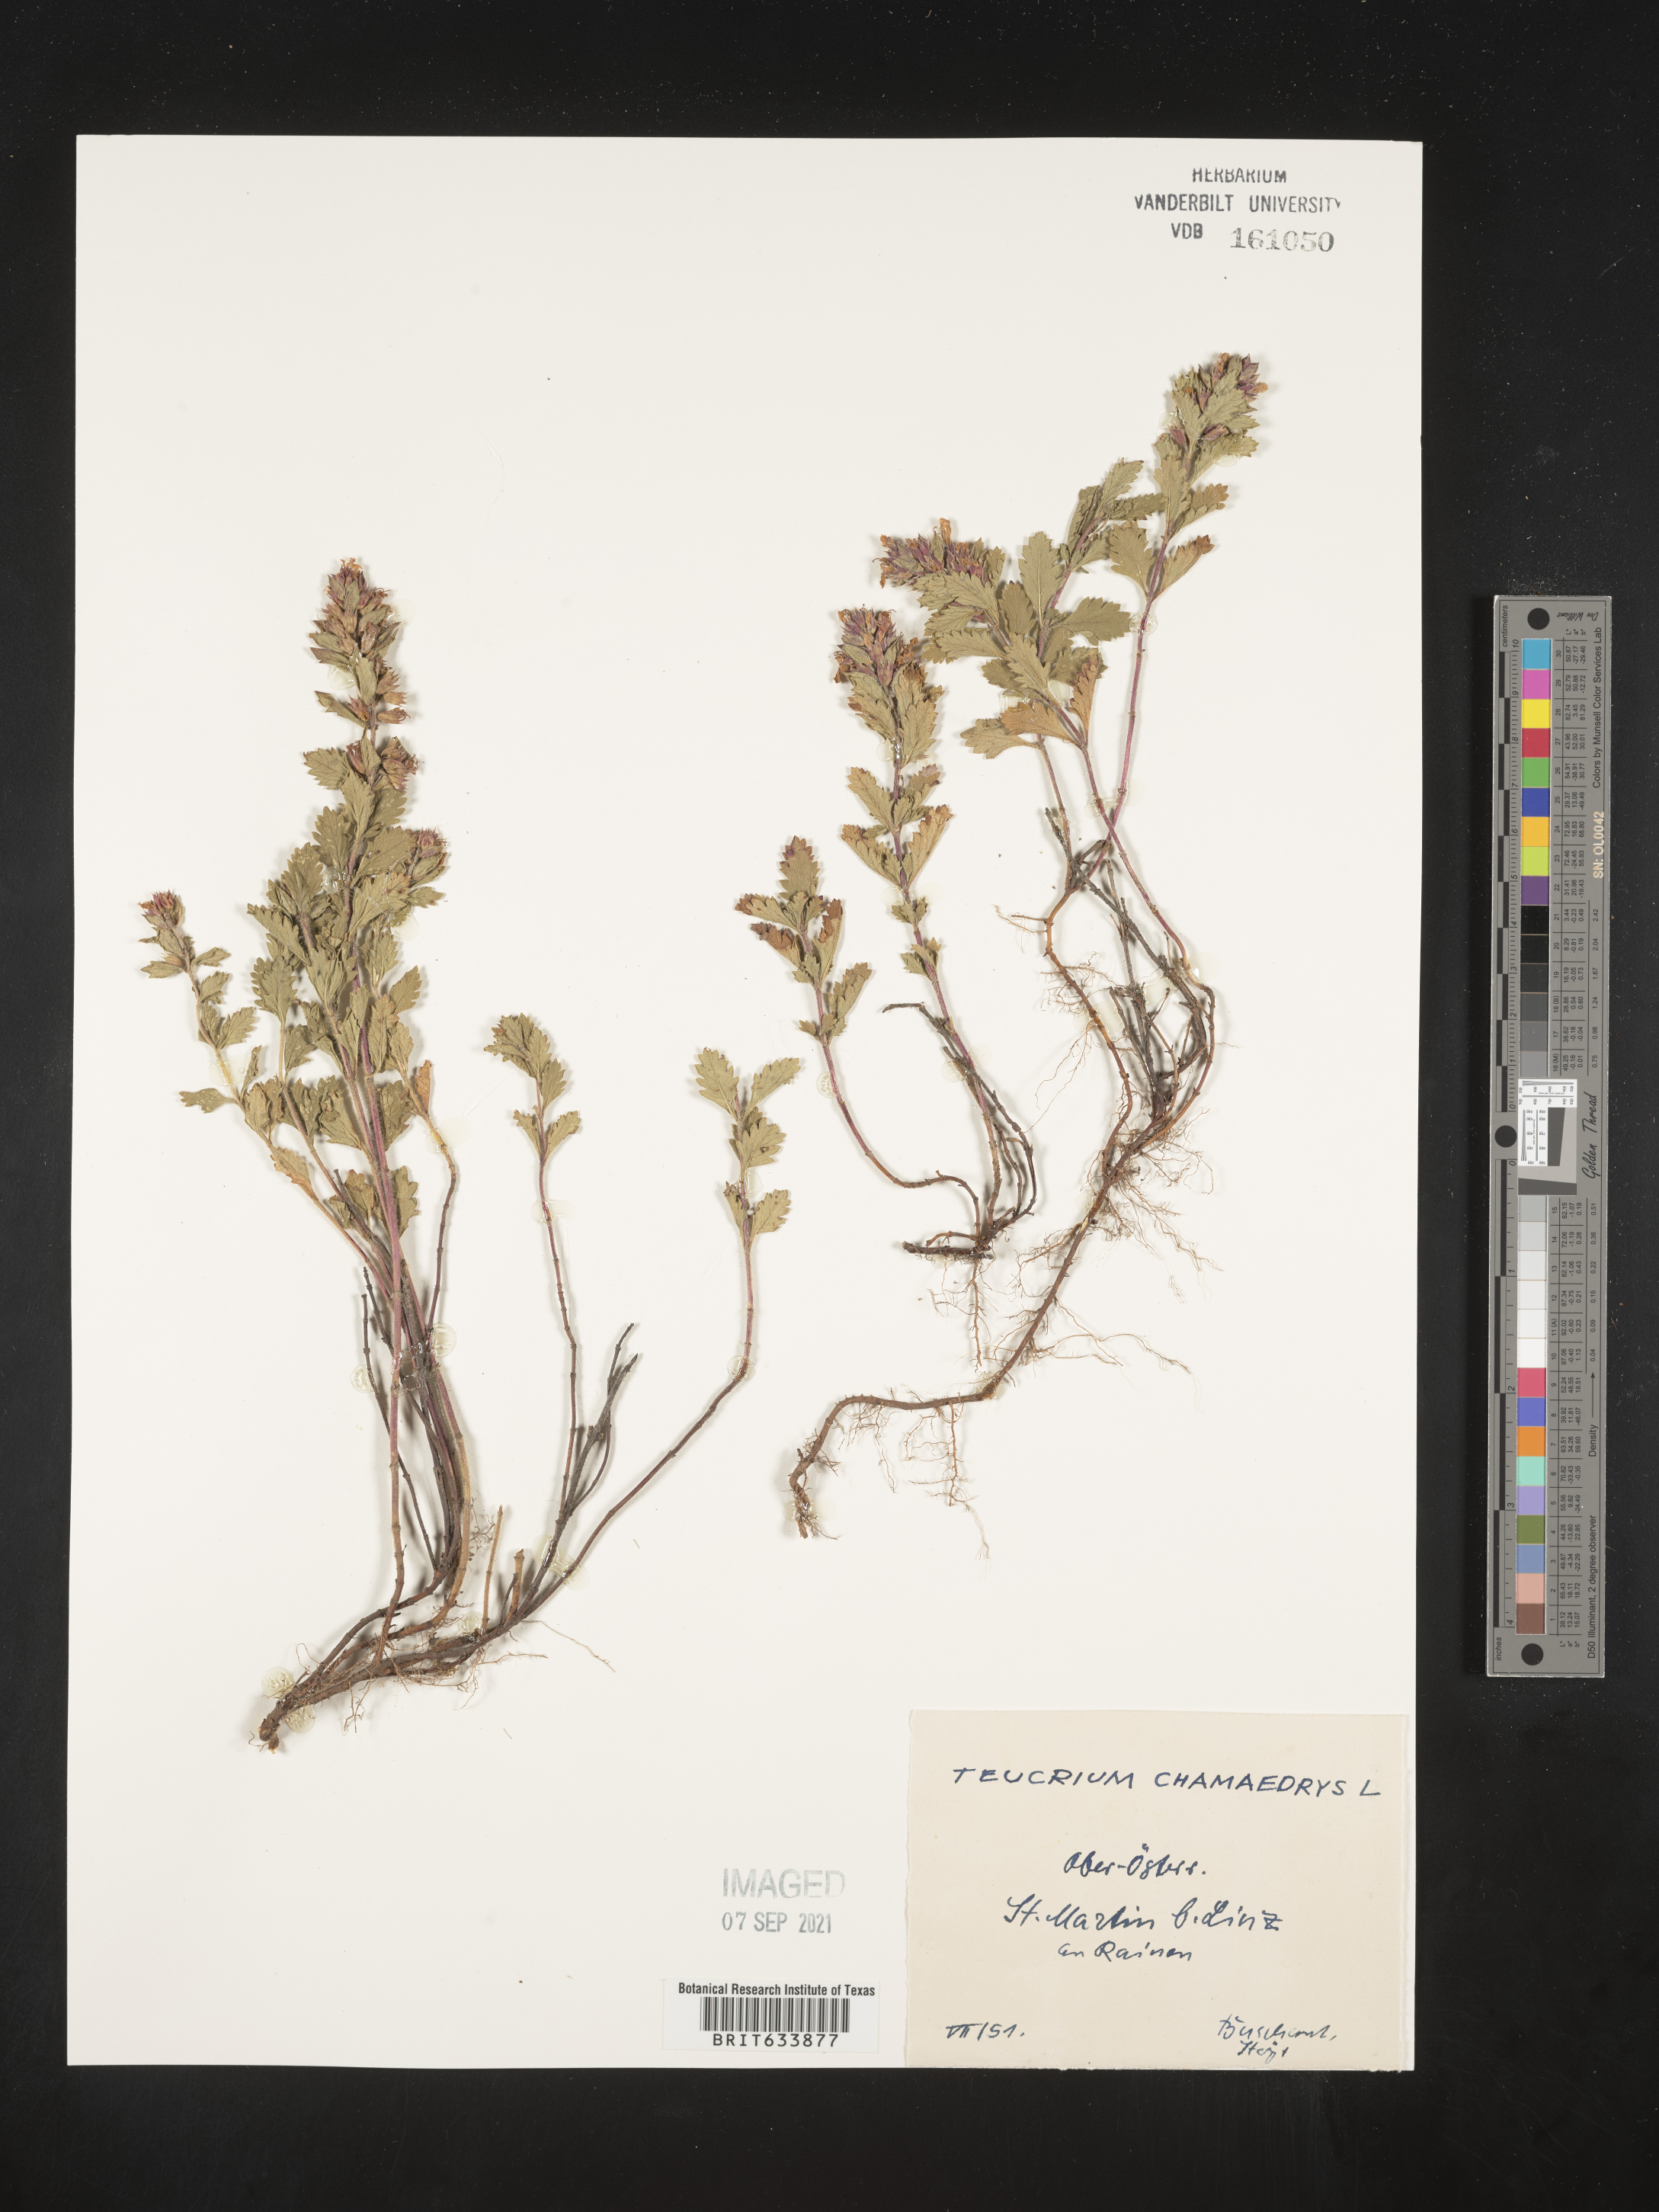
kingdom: Plantae
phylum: Tracheophyta
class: Magnoliopsida
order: Lamiales
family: Lamiaceae
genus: Teucrium
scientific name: Teucrium
